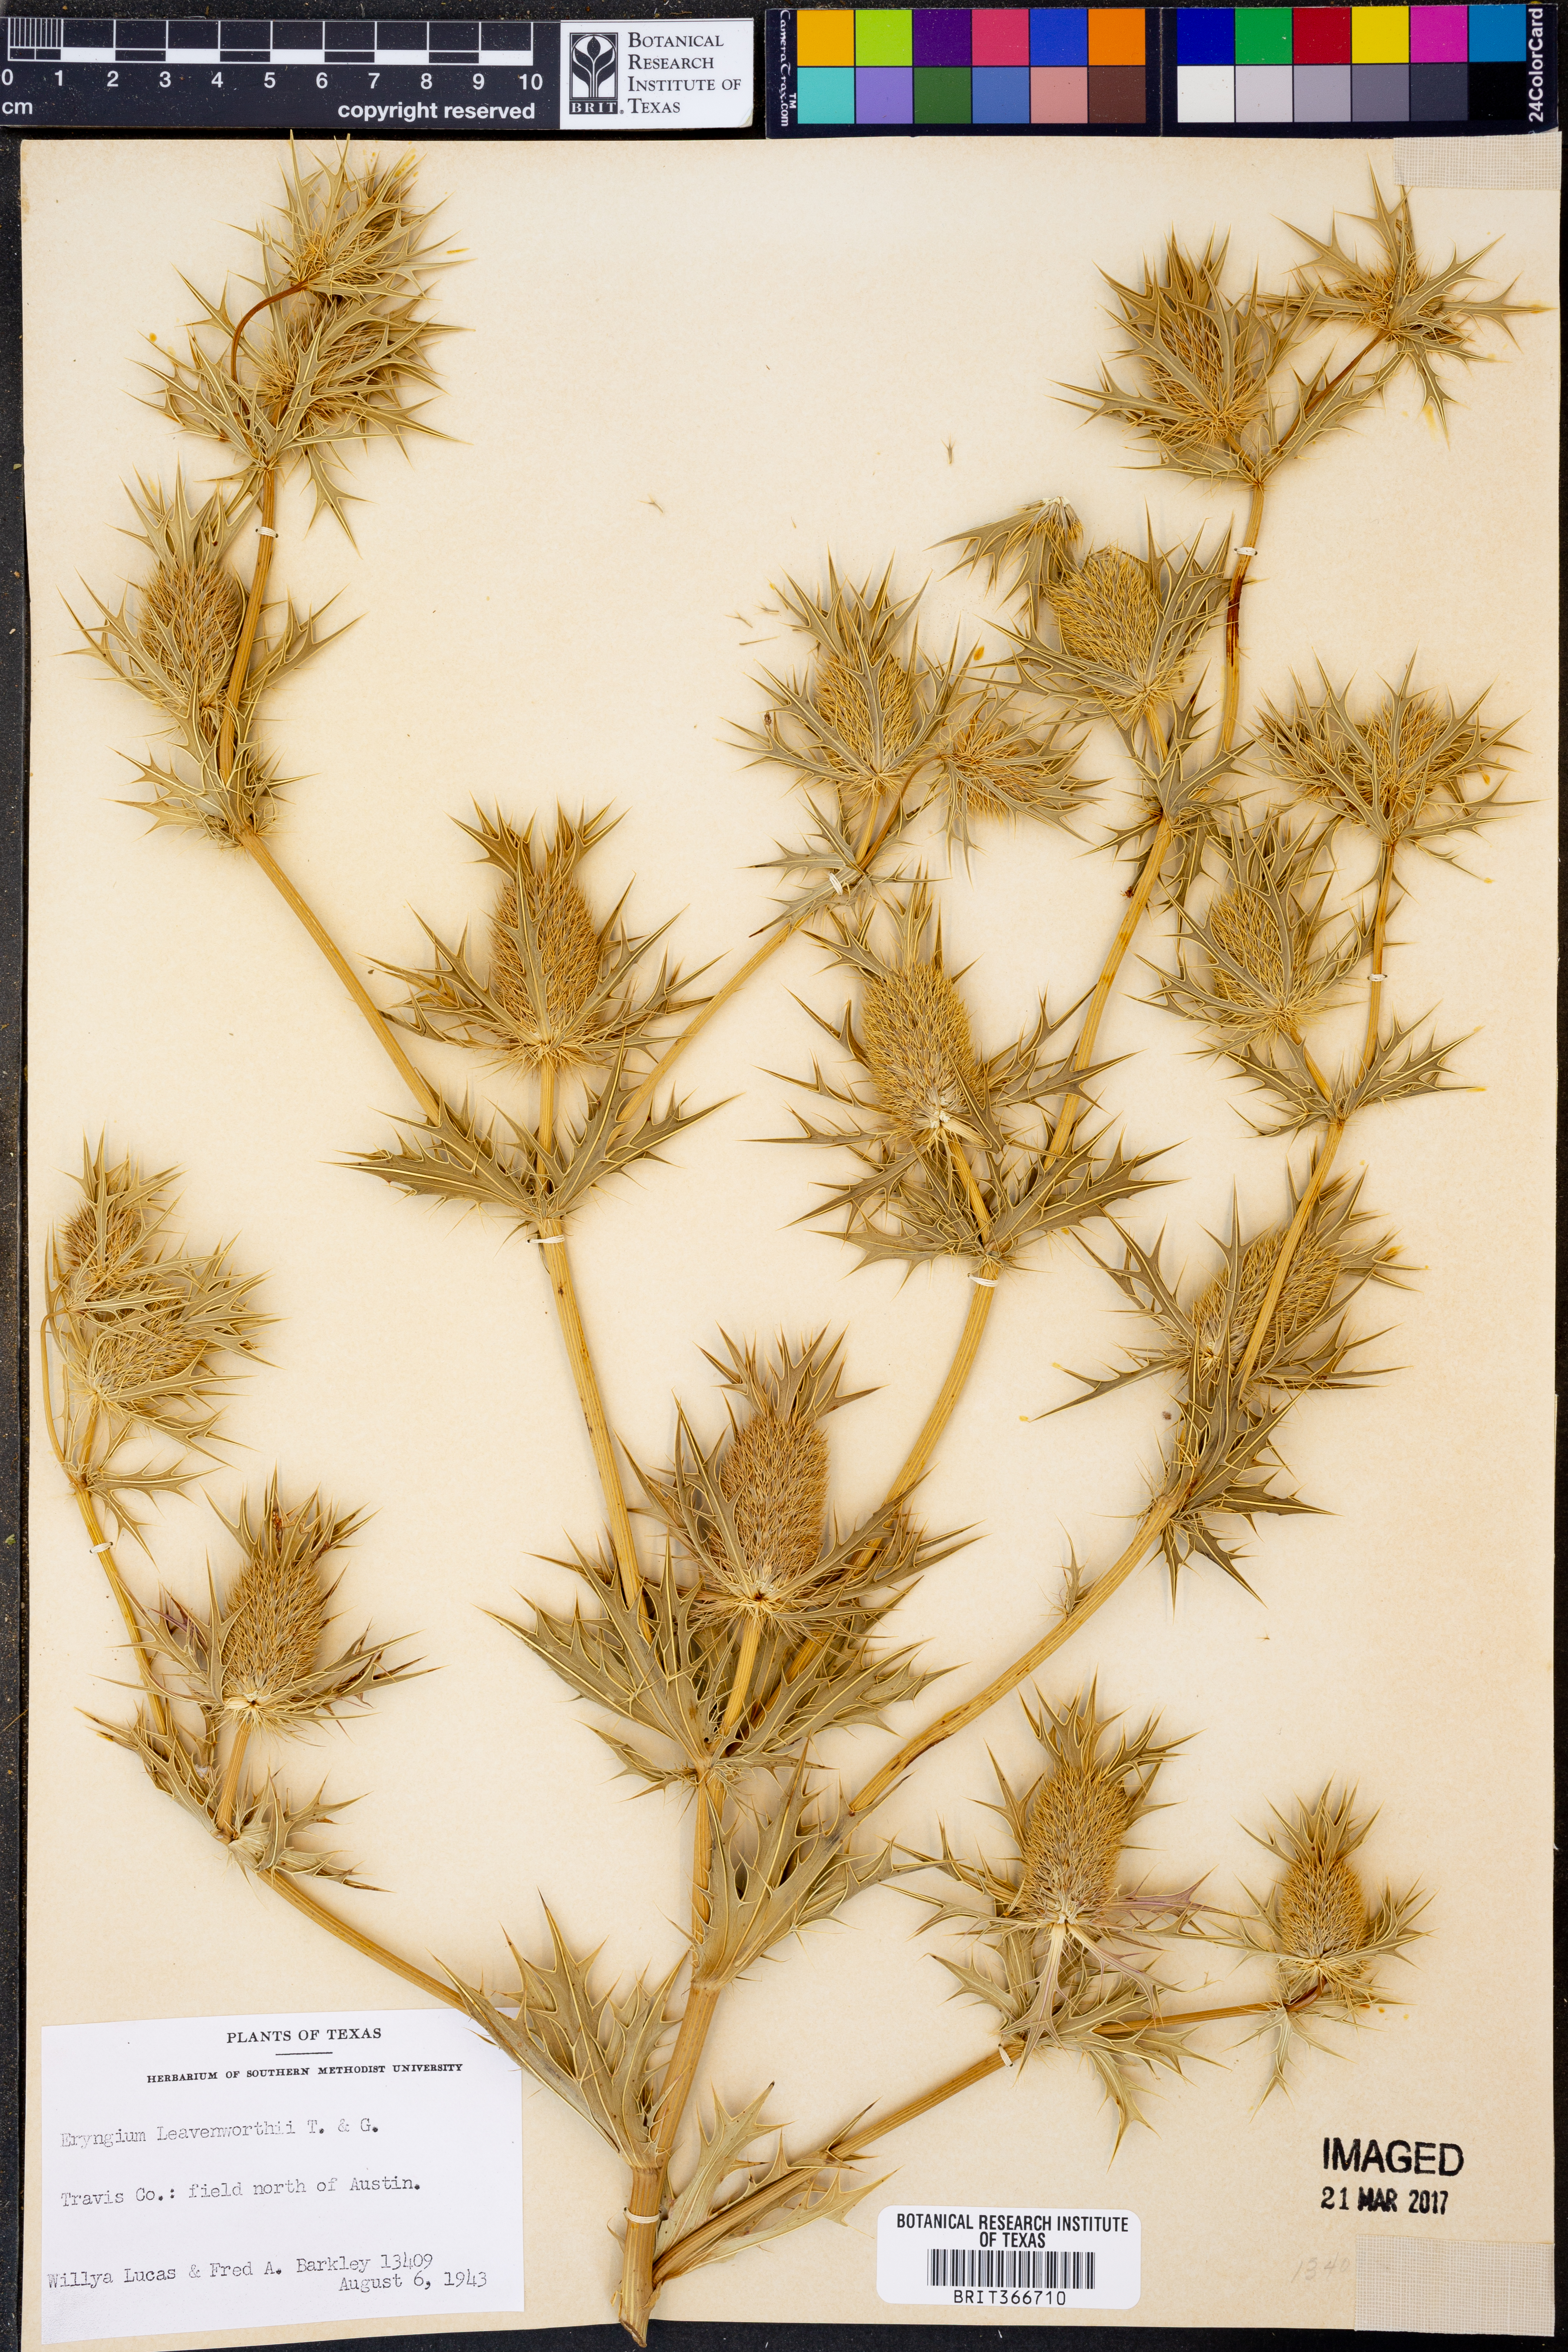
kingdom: Plantae
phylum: Tracheophyta
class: Magnoliopsida
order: Apiales
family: Apiaceae
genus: Eryngium
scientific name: Eryngium leavenworthii
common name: Leavenworth's eryngo
